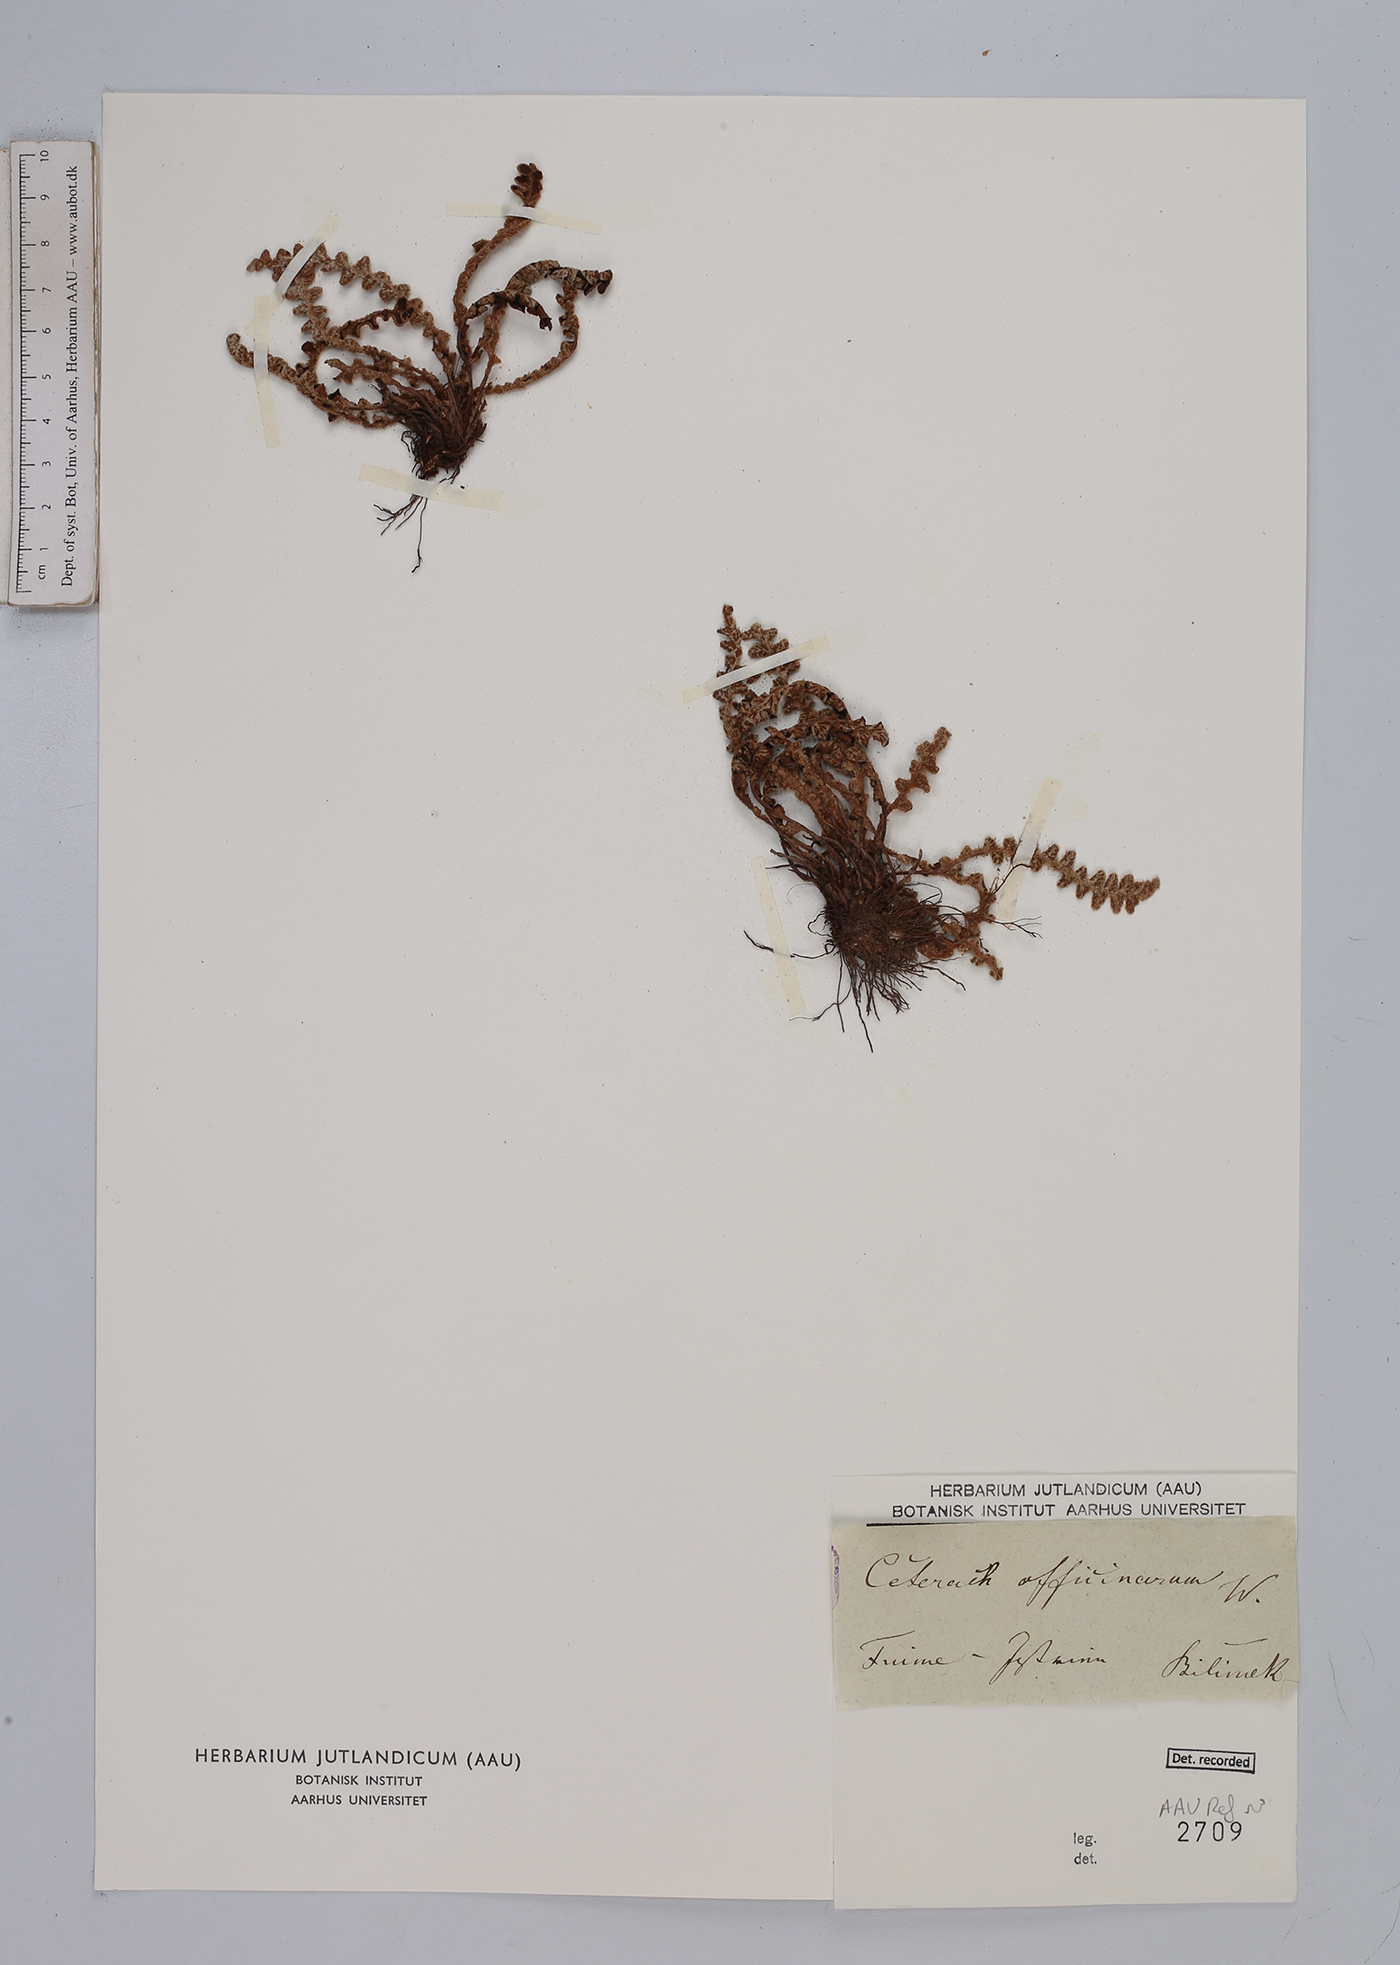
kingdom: Plantae
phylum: Tracheophyta
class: Polypodiopsida
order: Polypodiales
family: Aspleniaceae
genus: Asplenium
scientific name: Asplenium ceterach
